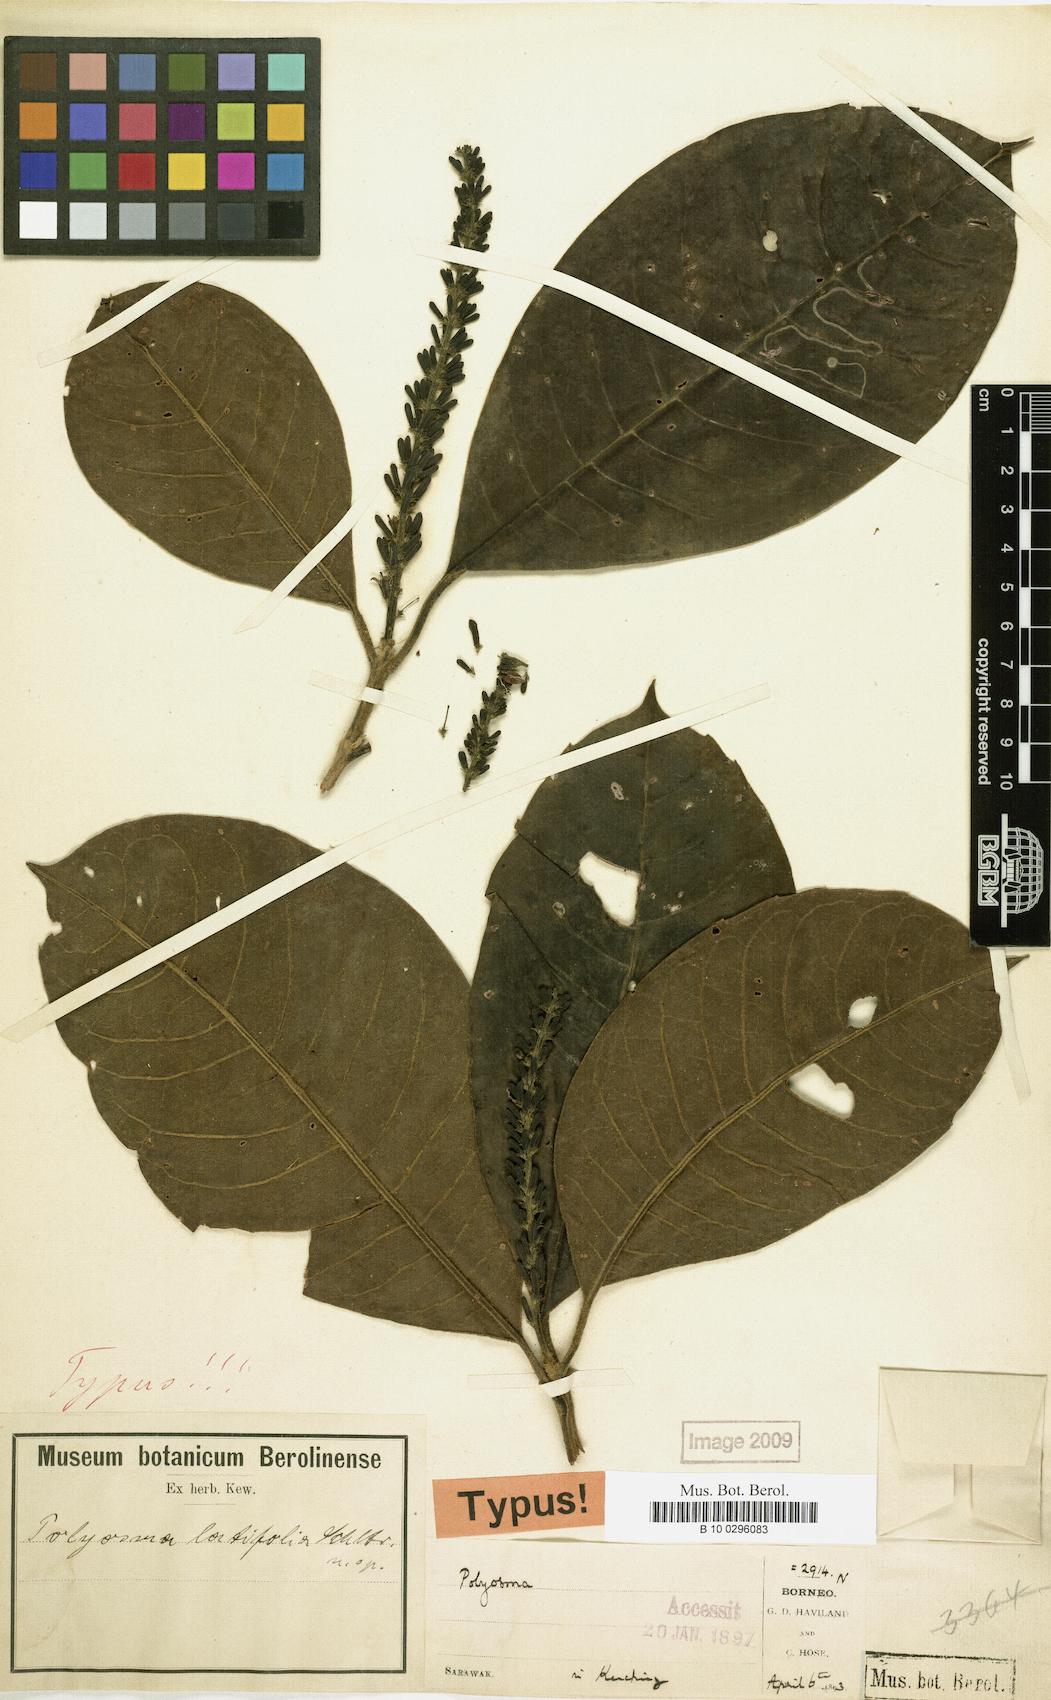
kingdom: Plantae
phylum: Tracheophyta
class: Magnoliopsida
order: Escalloniales
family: Escalloniaceae
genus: Polyosma
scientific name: Polyosma latifolia
